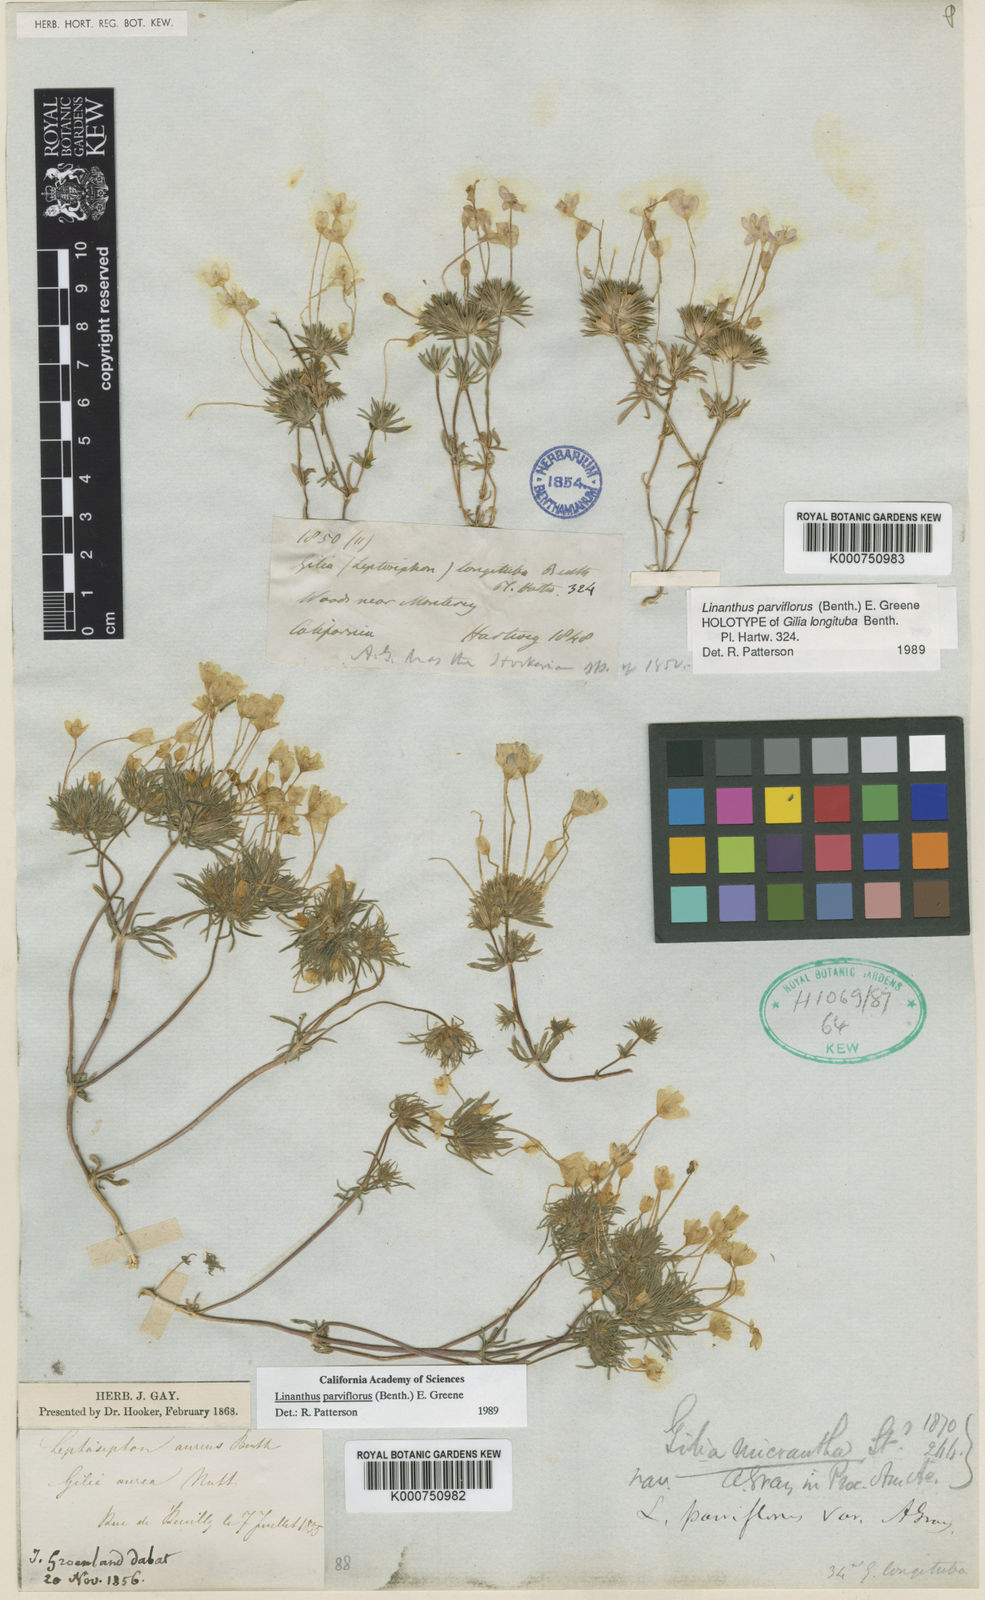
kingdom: Plantae
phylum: Tracheophyta
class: Magnoliopsida
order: Ericales
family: Polemoniaceae
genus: Leptosiphon
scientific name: Leptosiphon parviflorus
